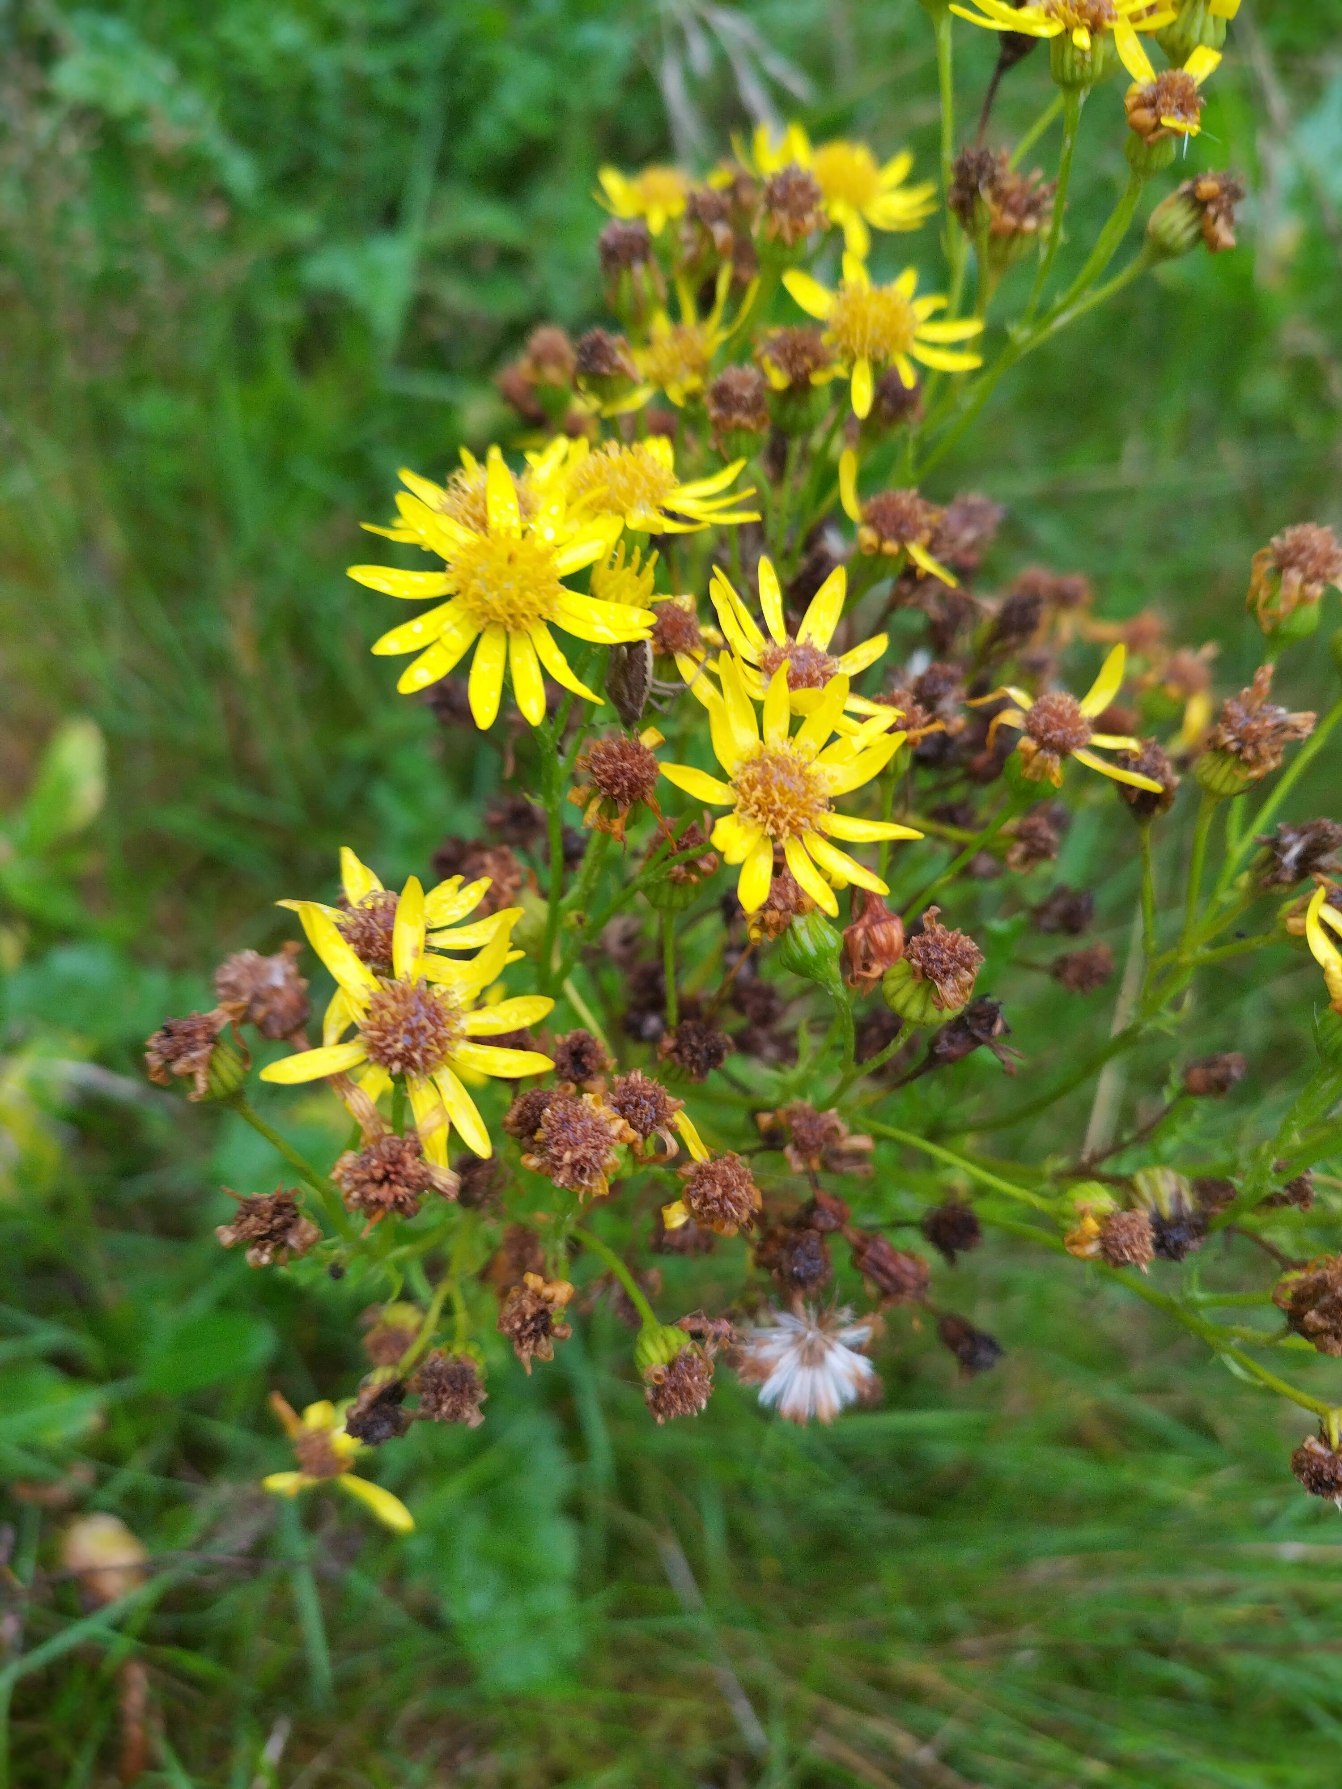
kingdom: Plantae
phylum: Tracheophyta
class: Magnoliopsida
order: Asterales
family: Asteraceae
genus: Jacobaea
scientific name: Jacobaea vulgaris
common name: Eng-brandbæger
